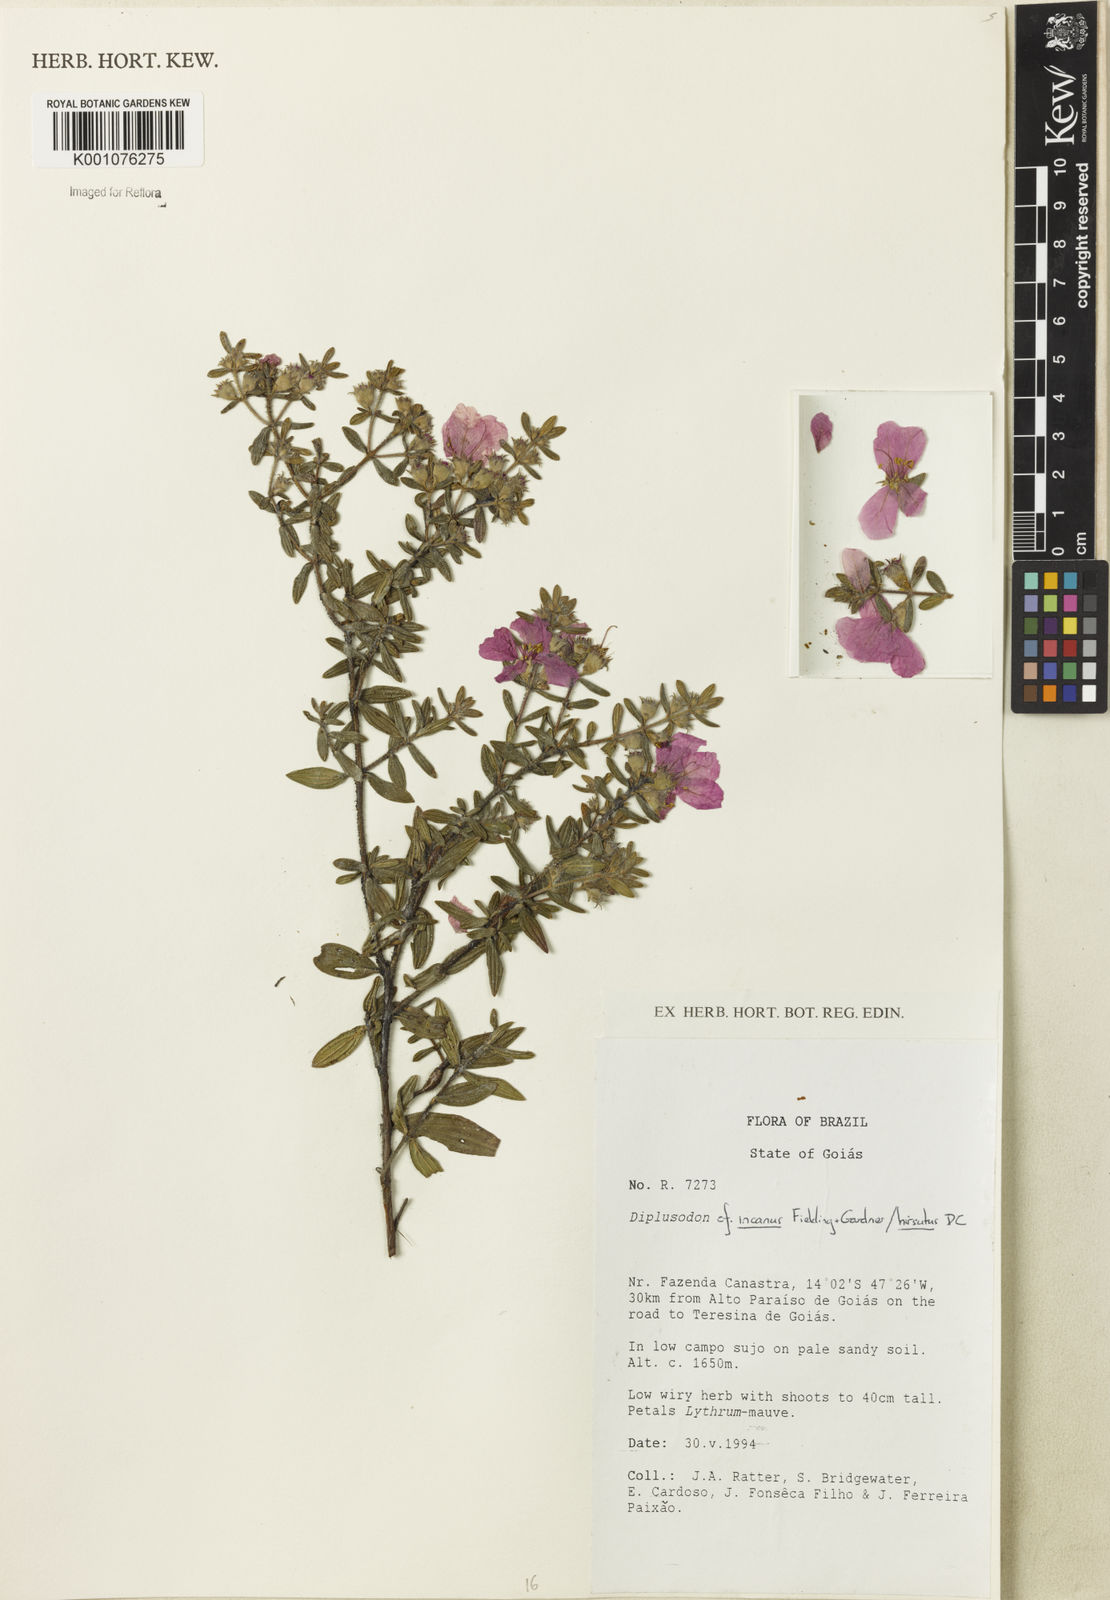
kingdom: Plantae
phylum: Tracheophyta
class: Magnoliopsida
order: Myrtales
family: Lythraceae
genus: Diplusodon
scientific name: Diplusodon incanus
